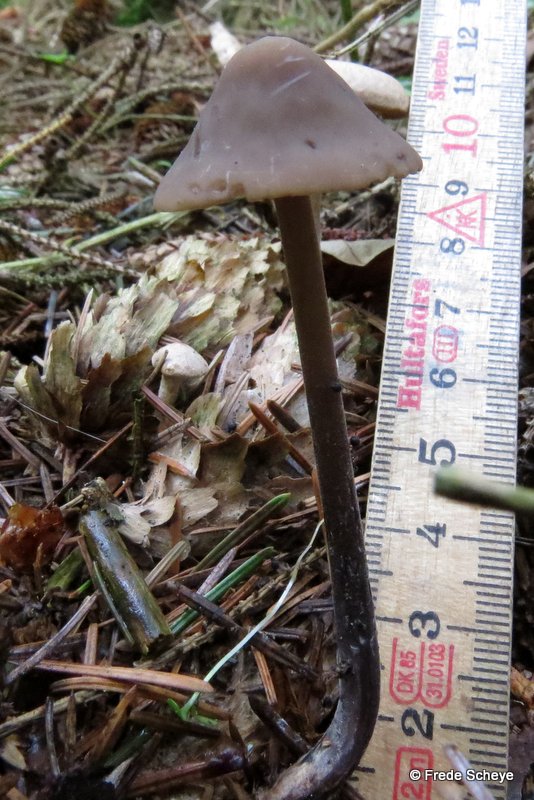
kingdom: Fungi
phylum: Basidiomycota
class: Agaricomycetes
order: Agaricales
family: Omphalotaceae
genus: Mycetinis
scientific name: Mycetinis alliaceus
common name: stor løghat
